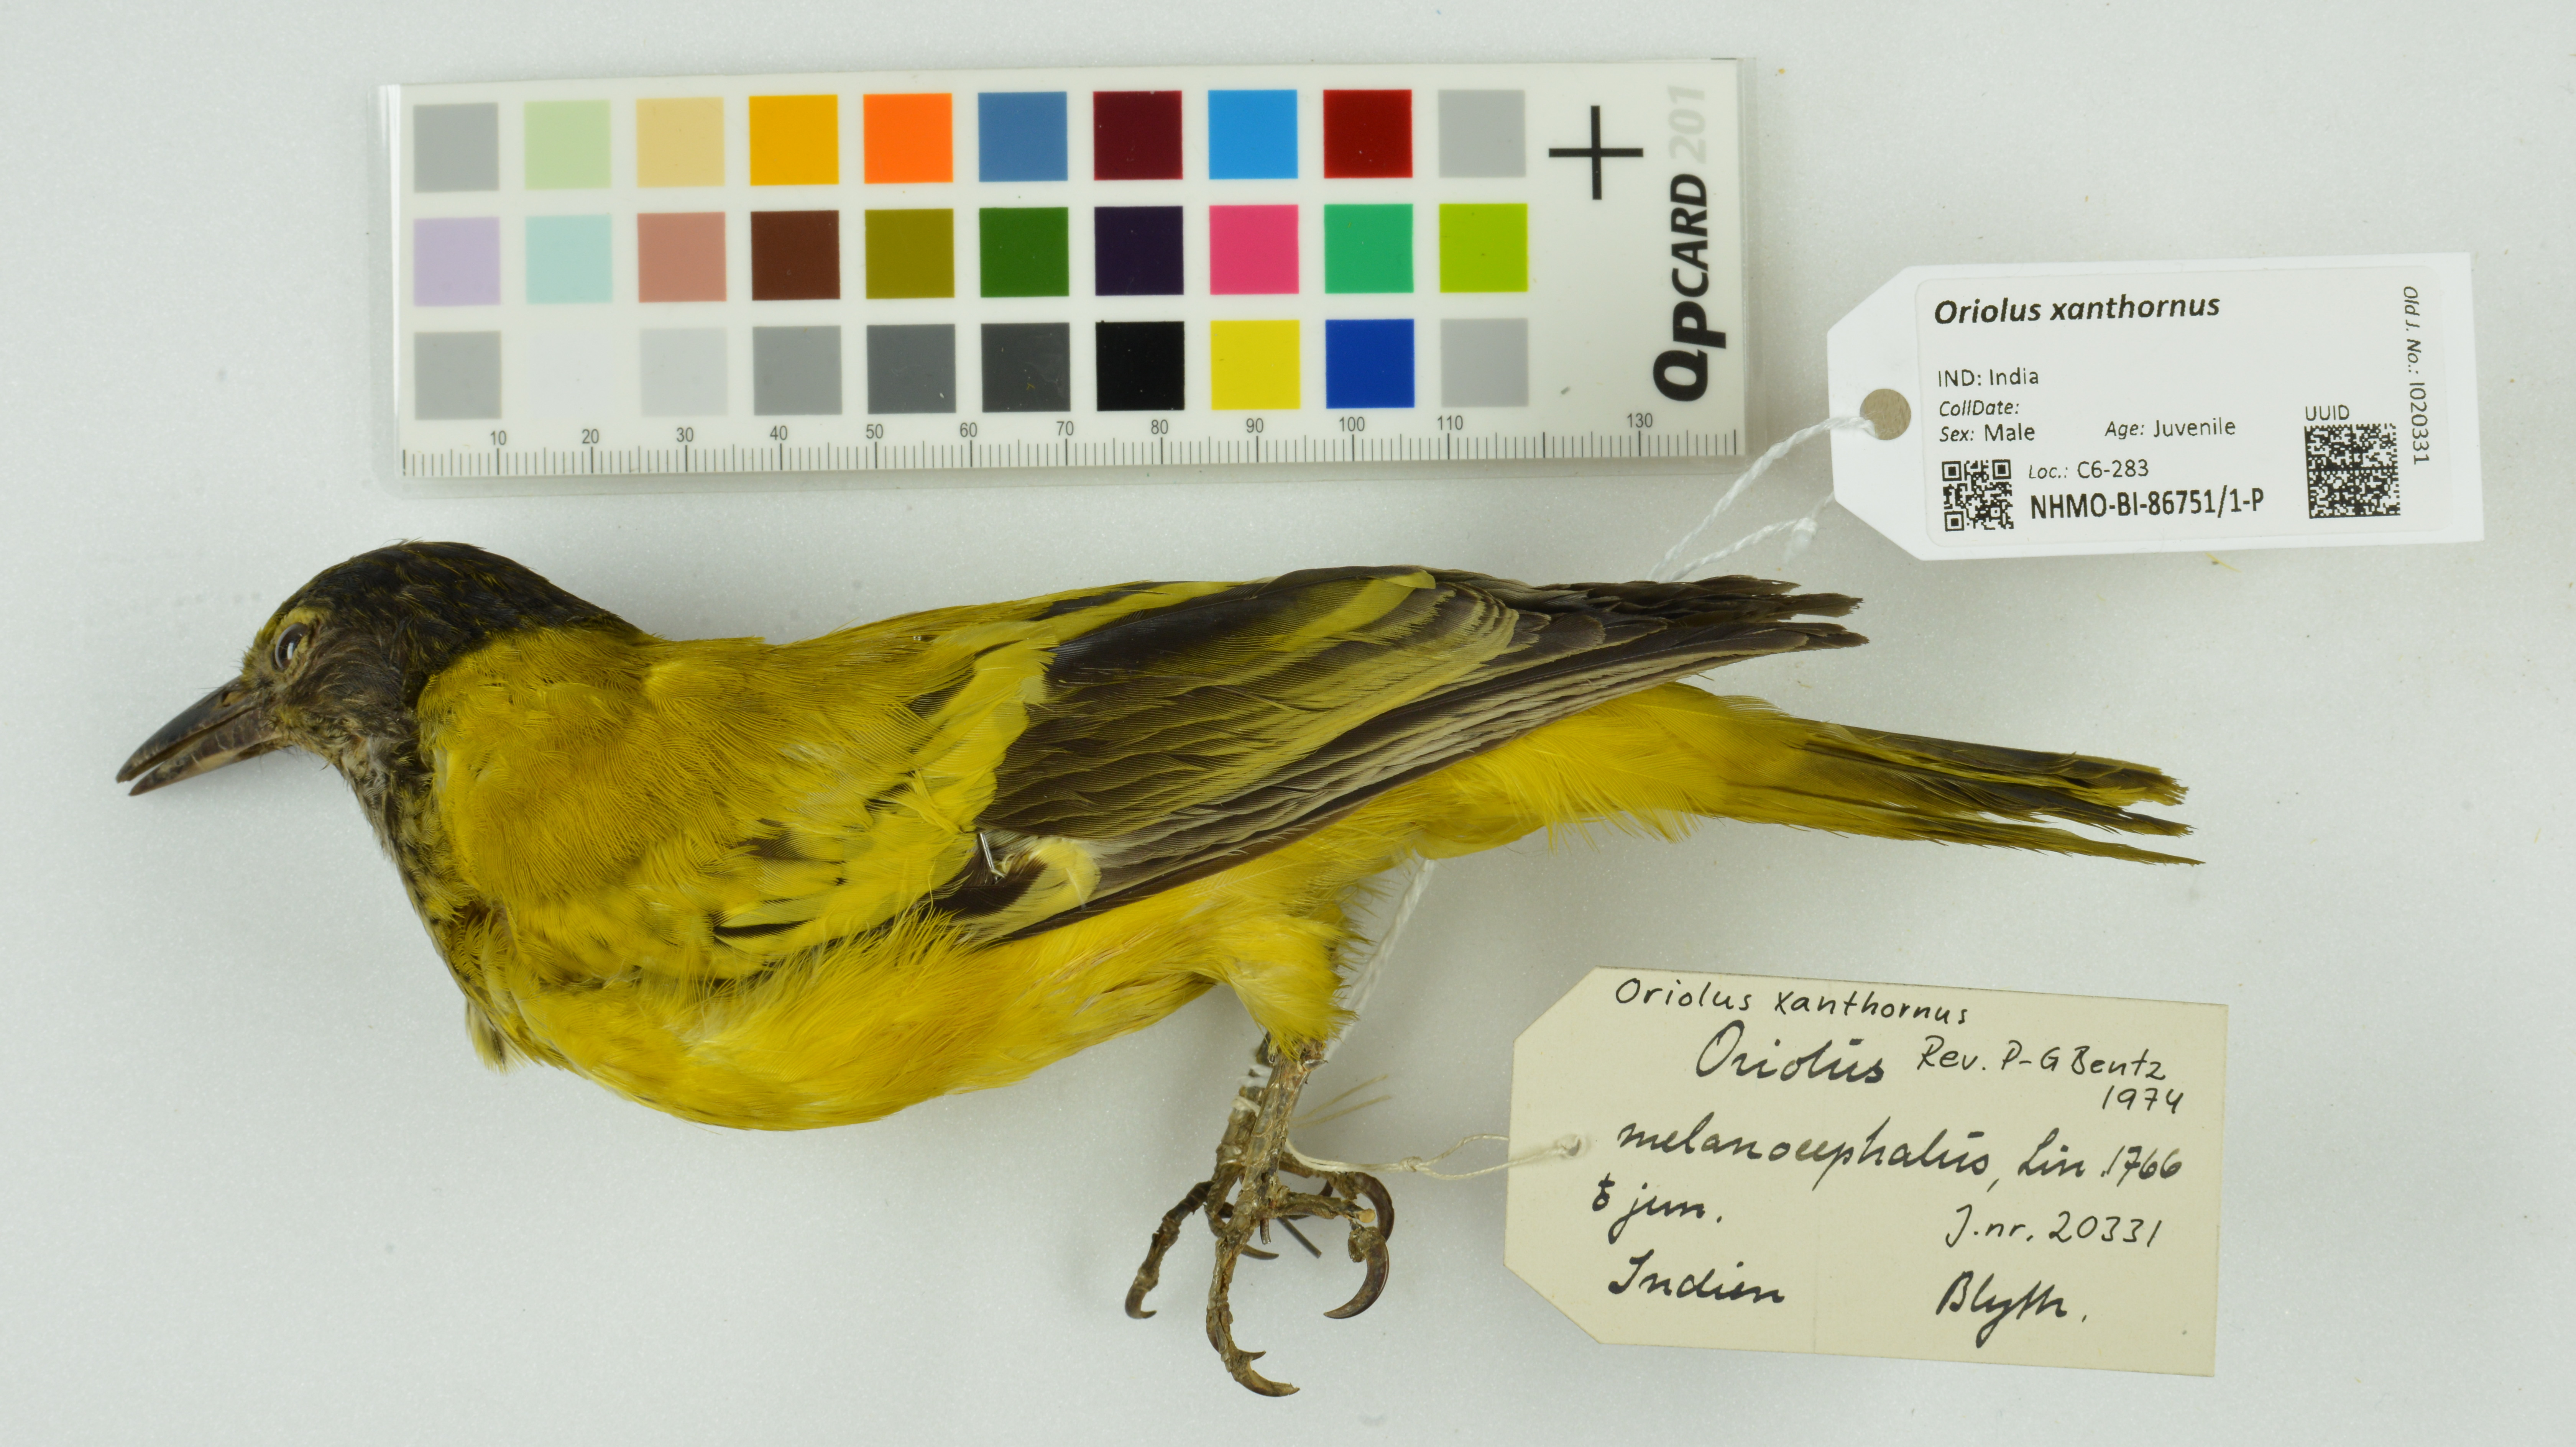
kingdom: Animalia
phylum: Chordata
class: Aves
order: Passeriformes
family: Oriolidae
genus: Oriolus
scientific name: Oriolus xanthornus
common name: Black-hooded oriole
